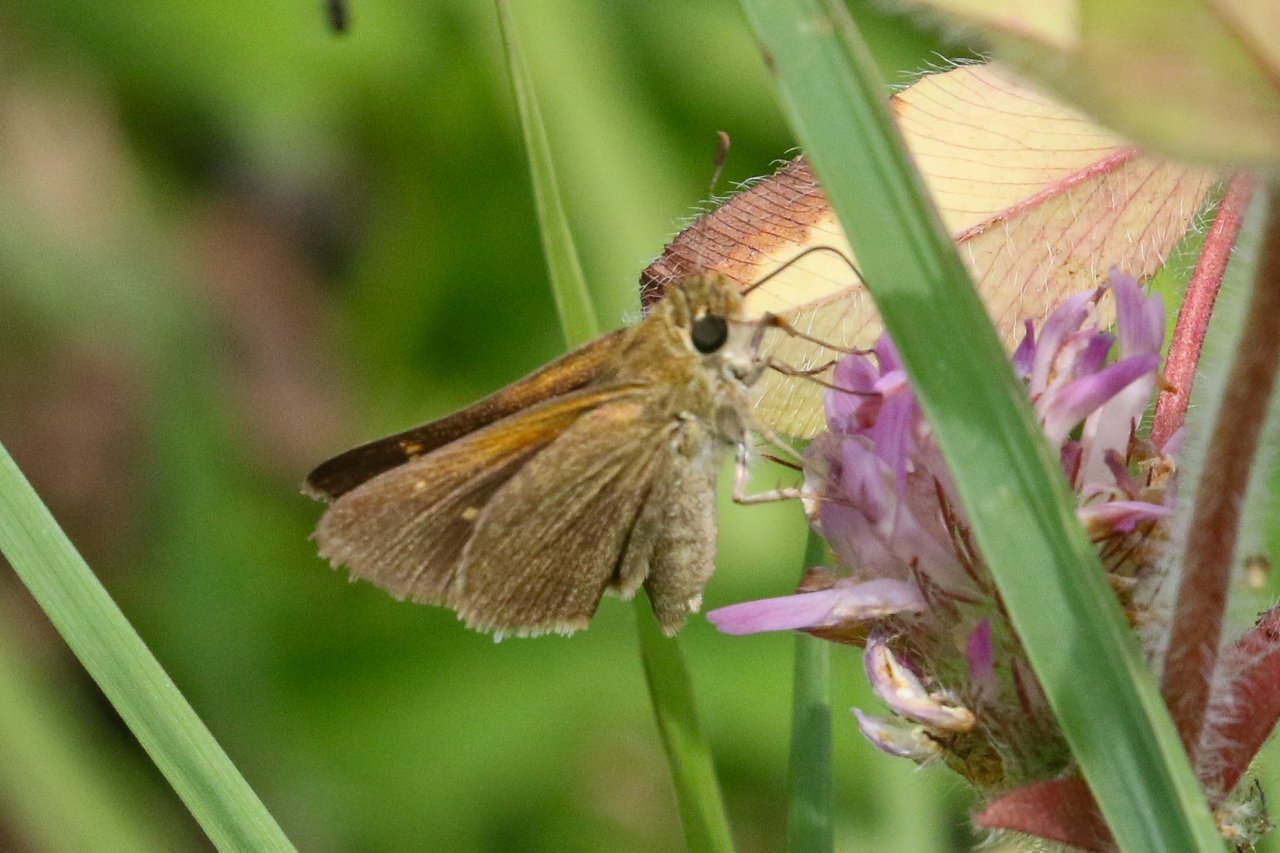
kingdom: Animalia
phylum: Arthropoda
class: Insecta
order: Lepidoptera
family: Hesperiidae
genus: Polites
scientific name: Polites themistocles
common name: Tawny-edged Skipper
